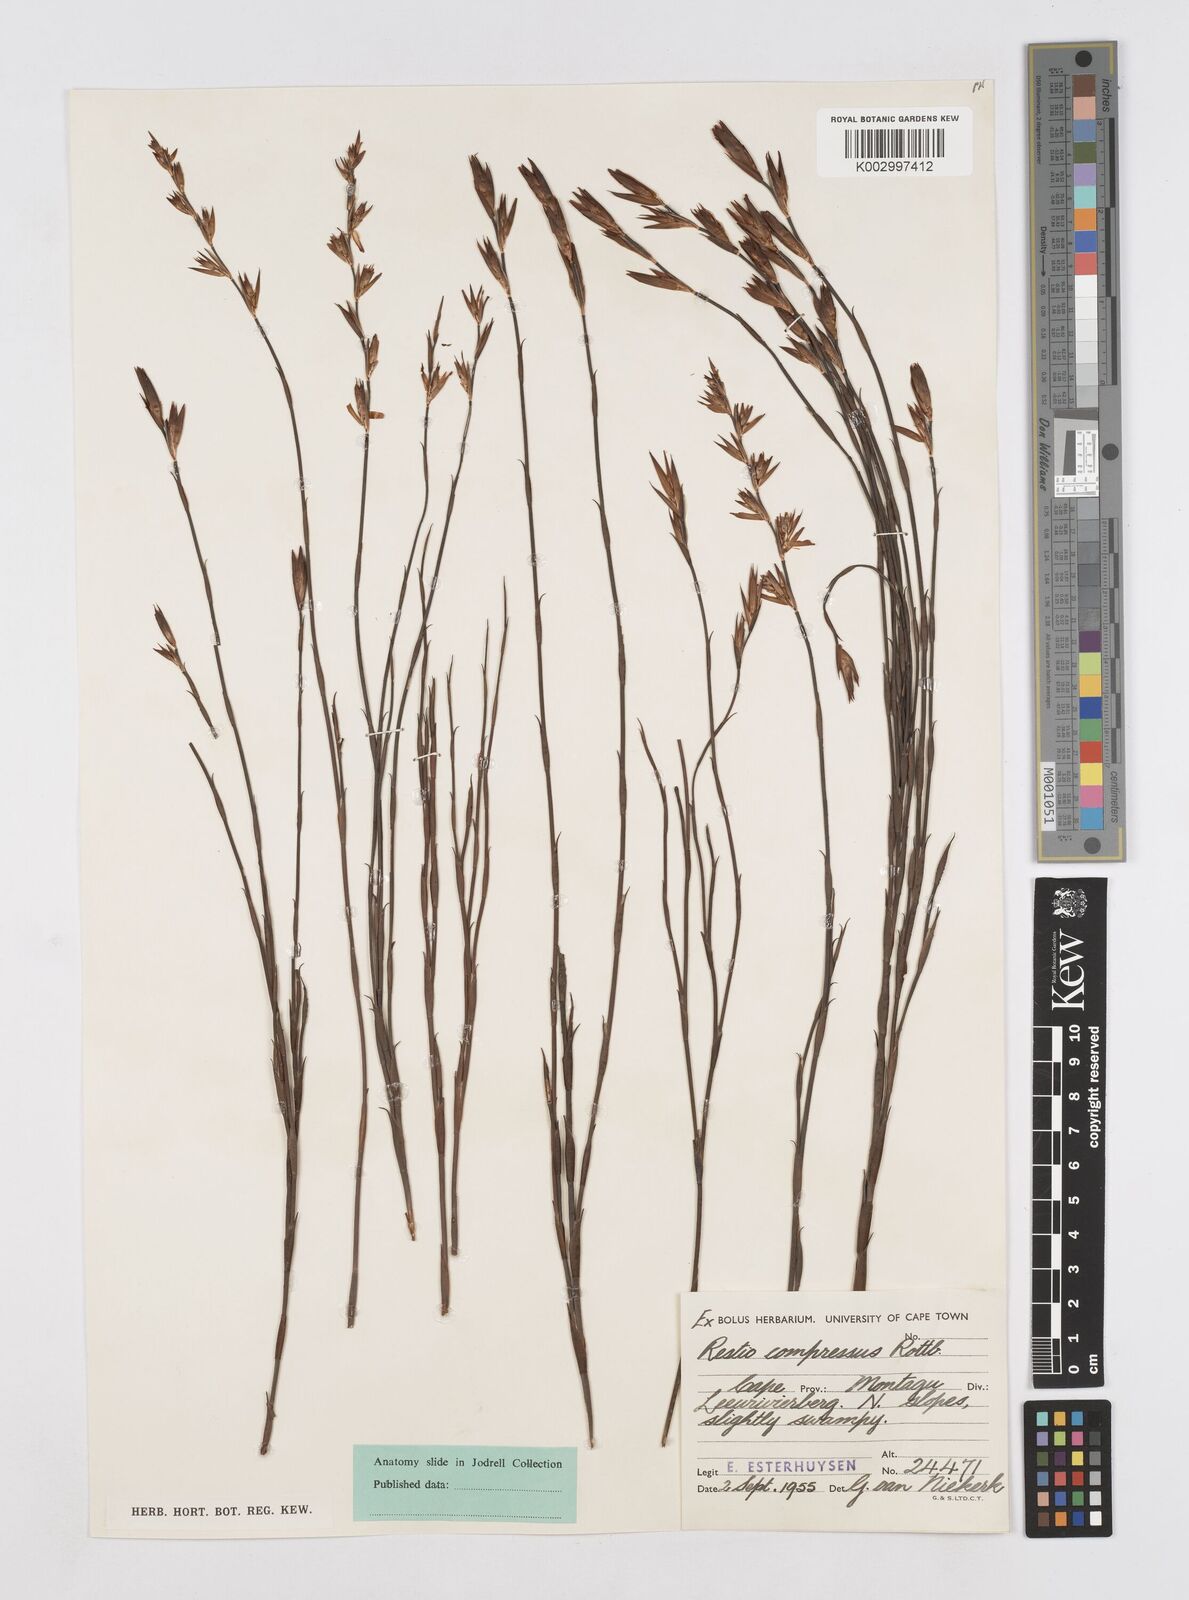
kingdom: Plantae
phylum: Tracheophyta
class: Liliopsida
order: Poales
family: Restionaceae
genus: Platycaulos
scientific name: Platycaulos compressus
